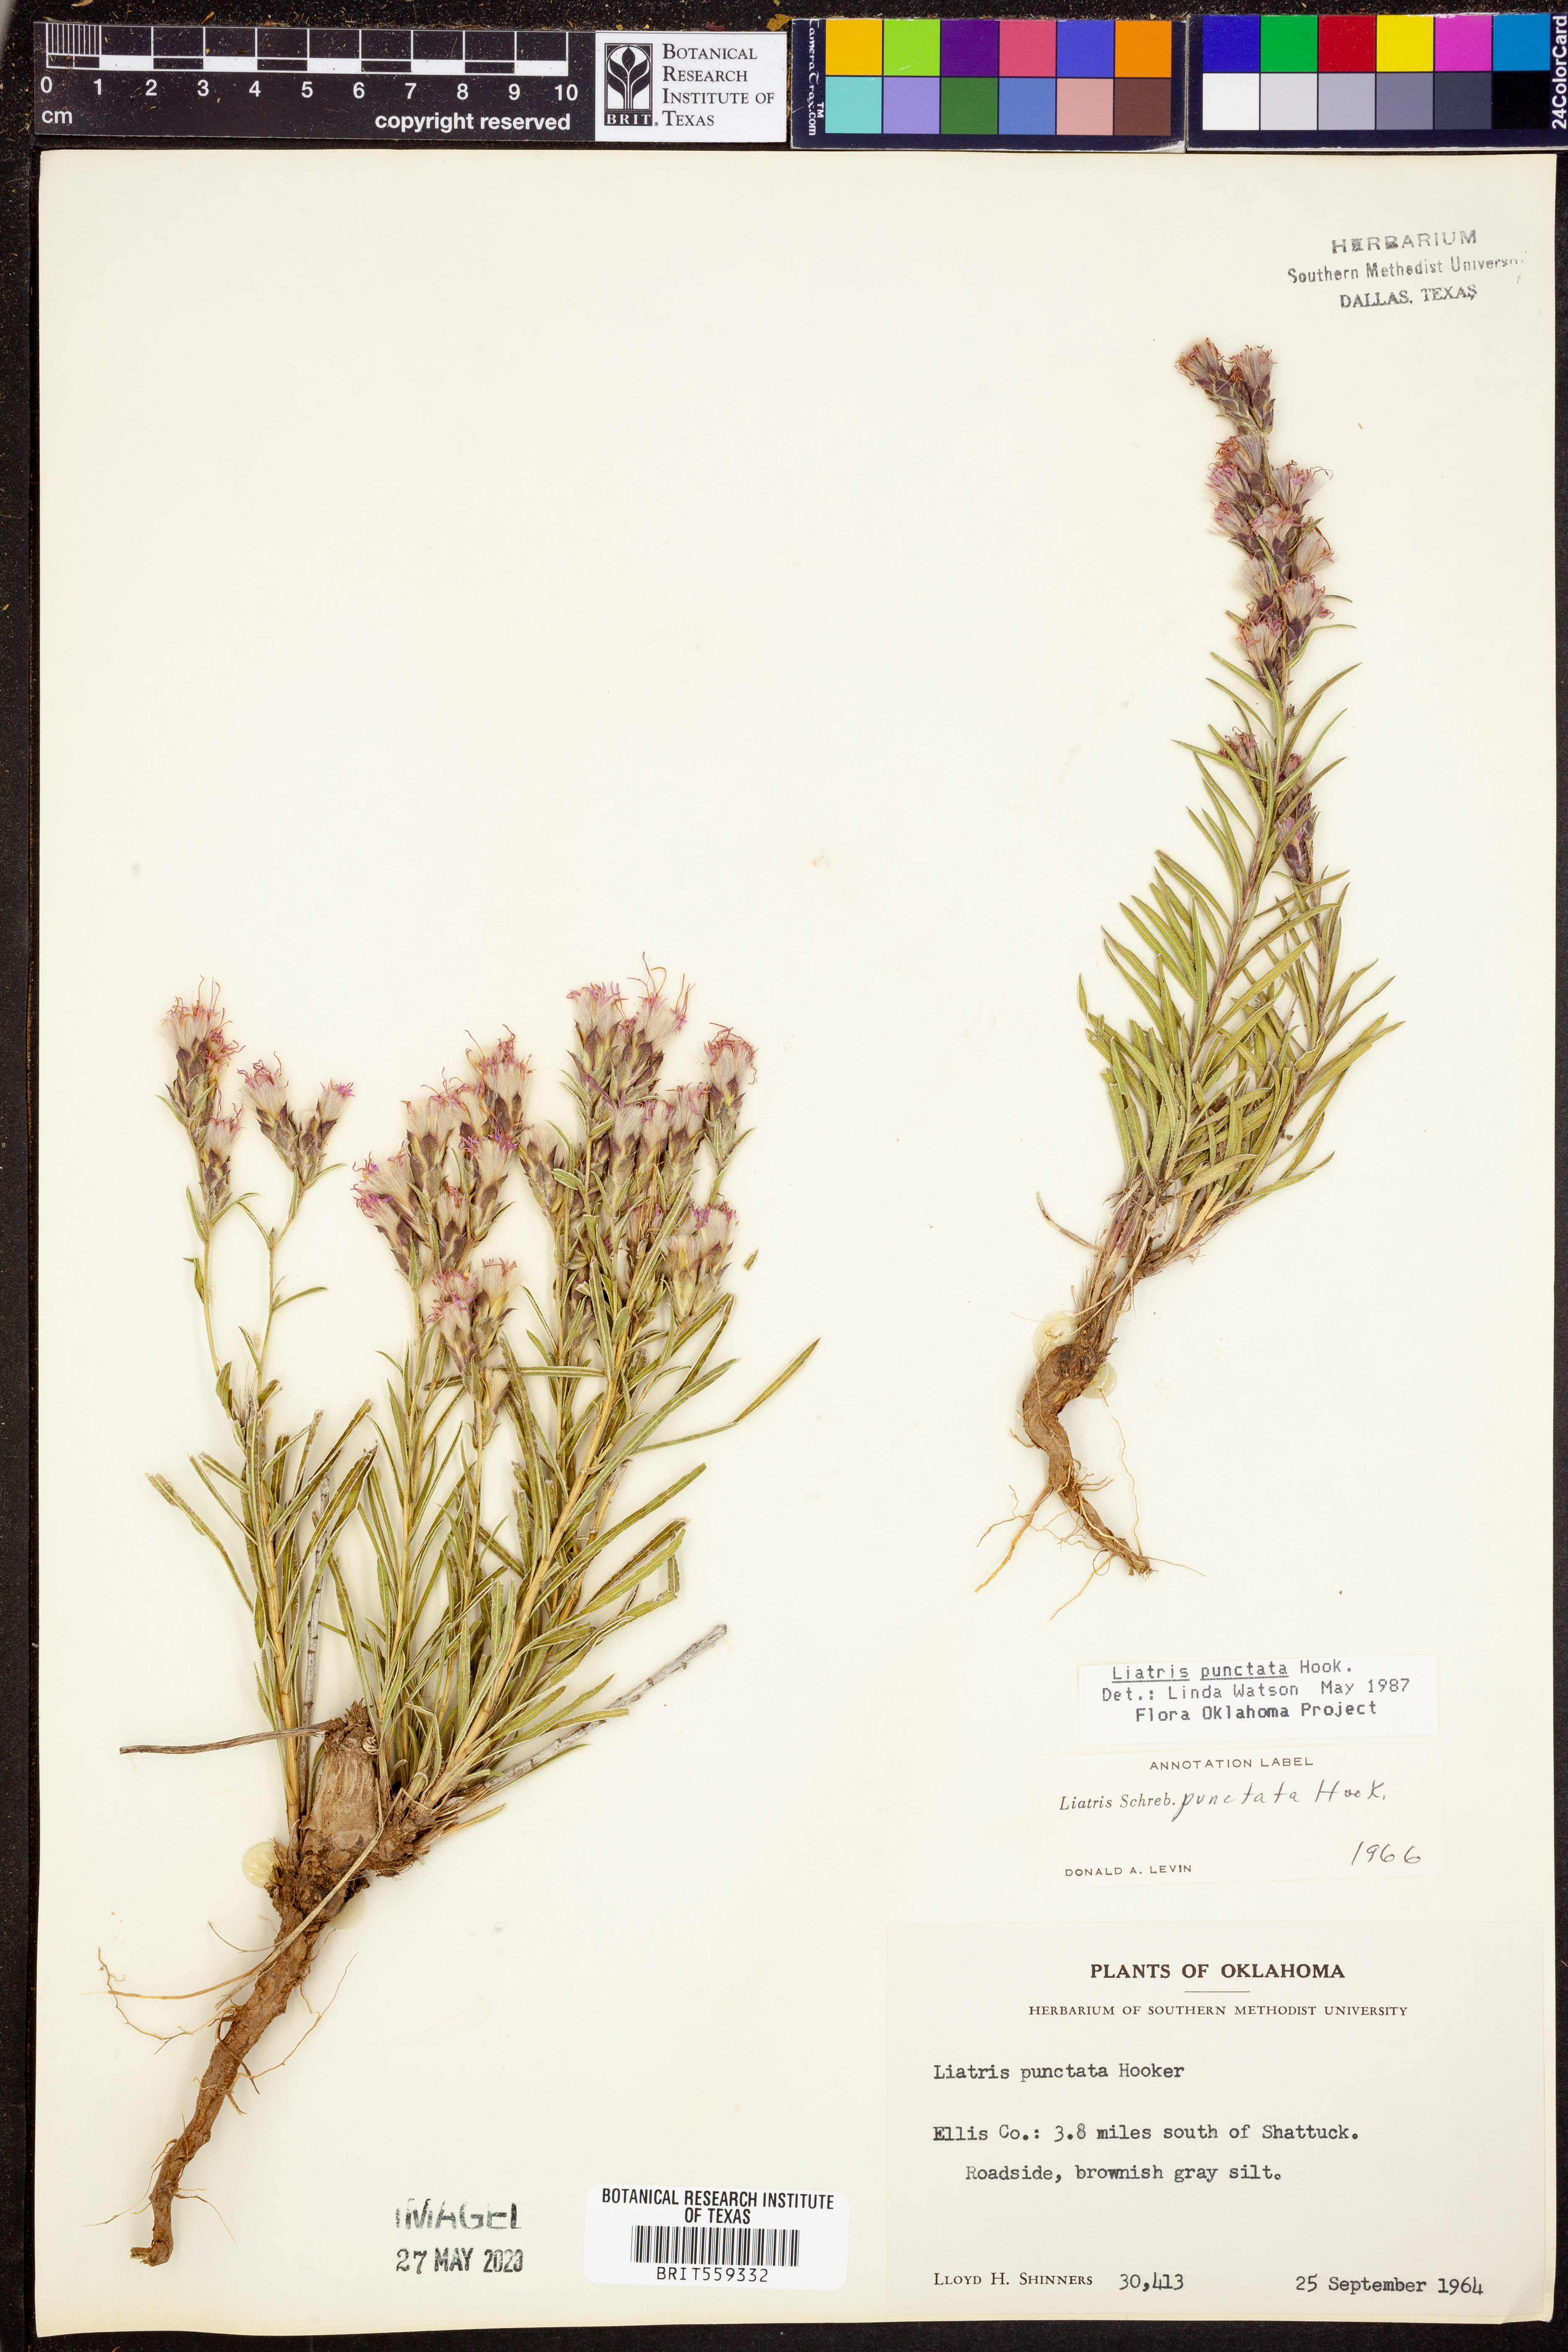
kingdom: Plantae
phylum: Tracheophyta
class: Magnoliopsida
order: Asterales
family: Asteraceae
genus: Liatris
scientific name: Liatris punctata
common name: Dotted gayfeather
